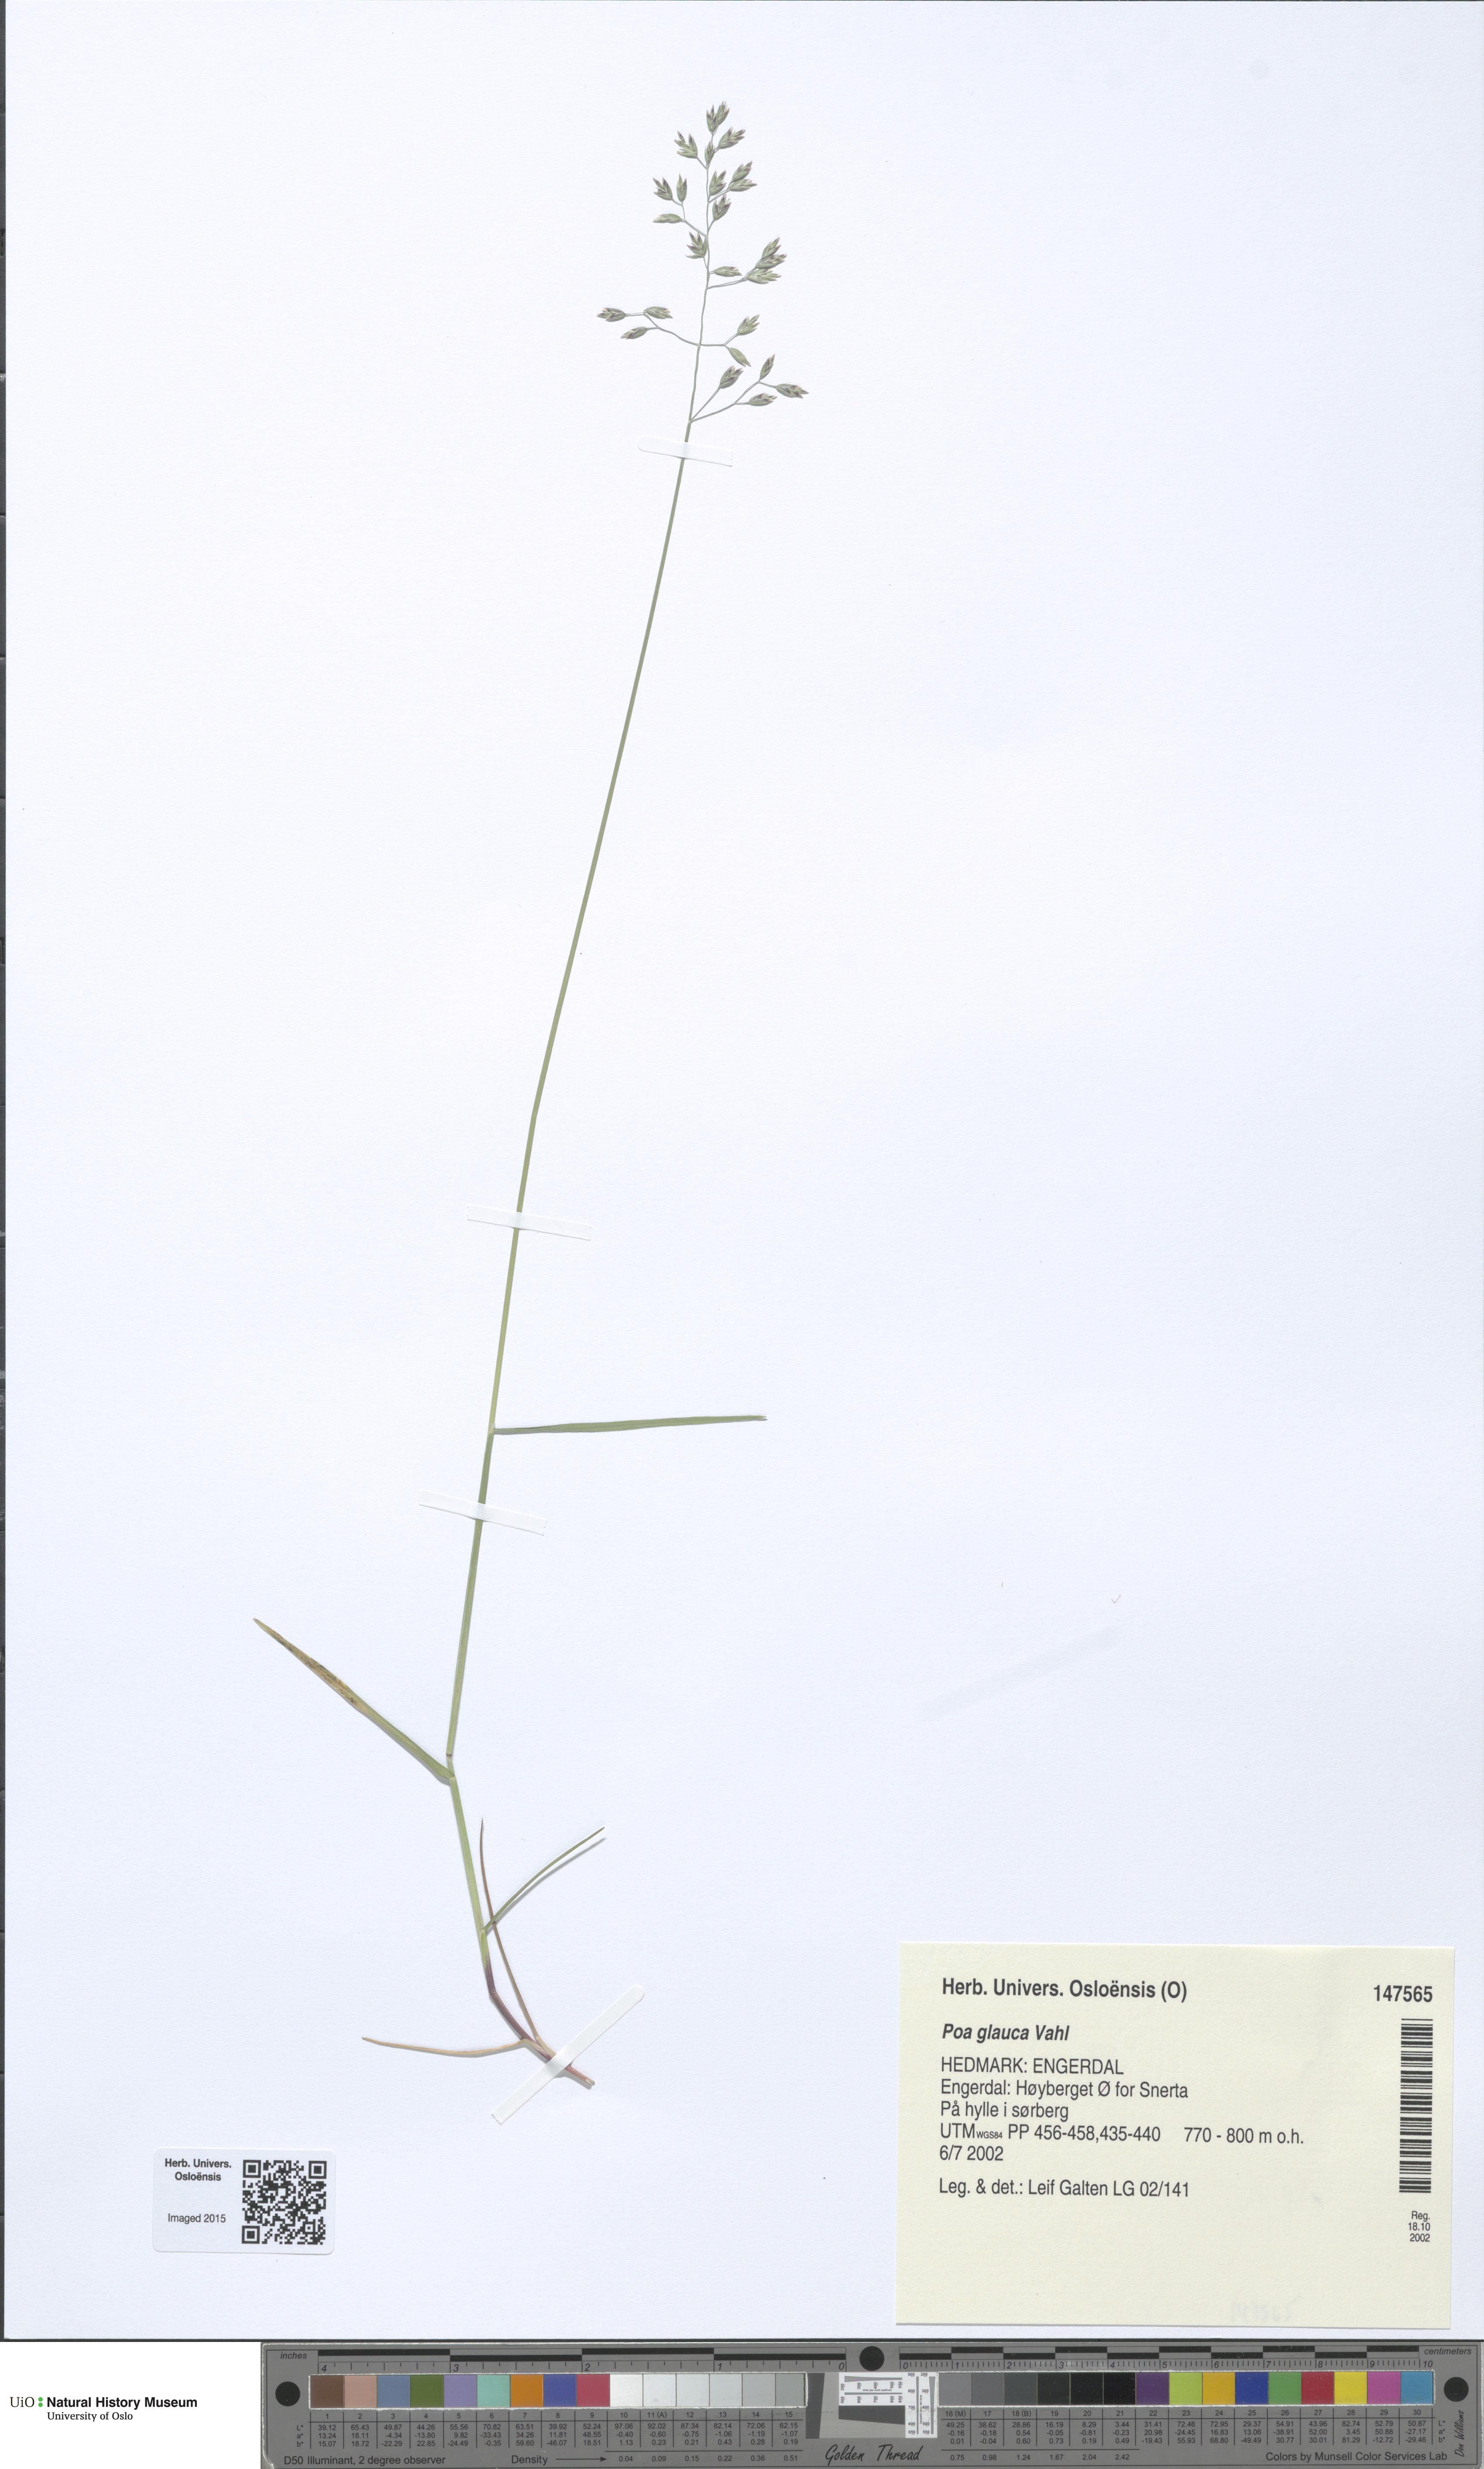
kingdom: Plantae
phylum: Tracheophyta
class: Liliopsida
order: Poales
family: Poaceae
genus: Poa
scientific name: Poa glauca
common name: Glaucous bluegrass
